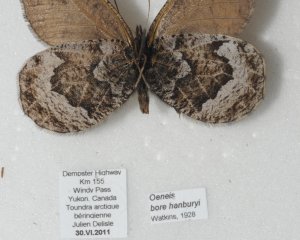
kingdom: Animalia
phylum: Arthropoda
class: Insecta
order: Lepidoptera
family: Nymphalidae
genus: Oeneis
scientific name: Oeneis bore
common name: White-veined Arctic
